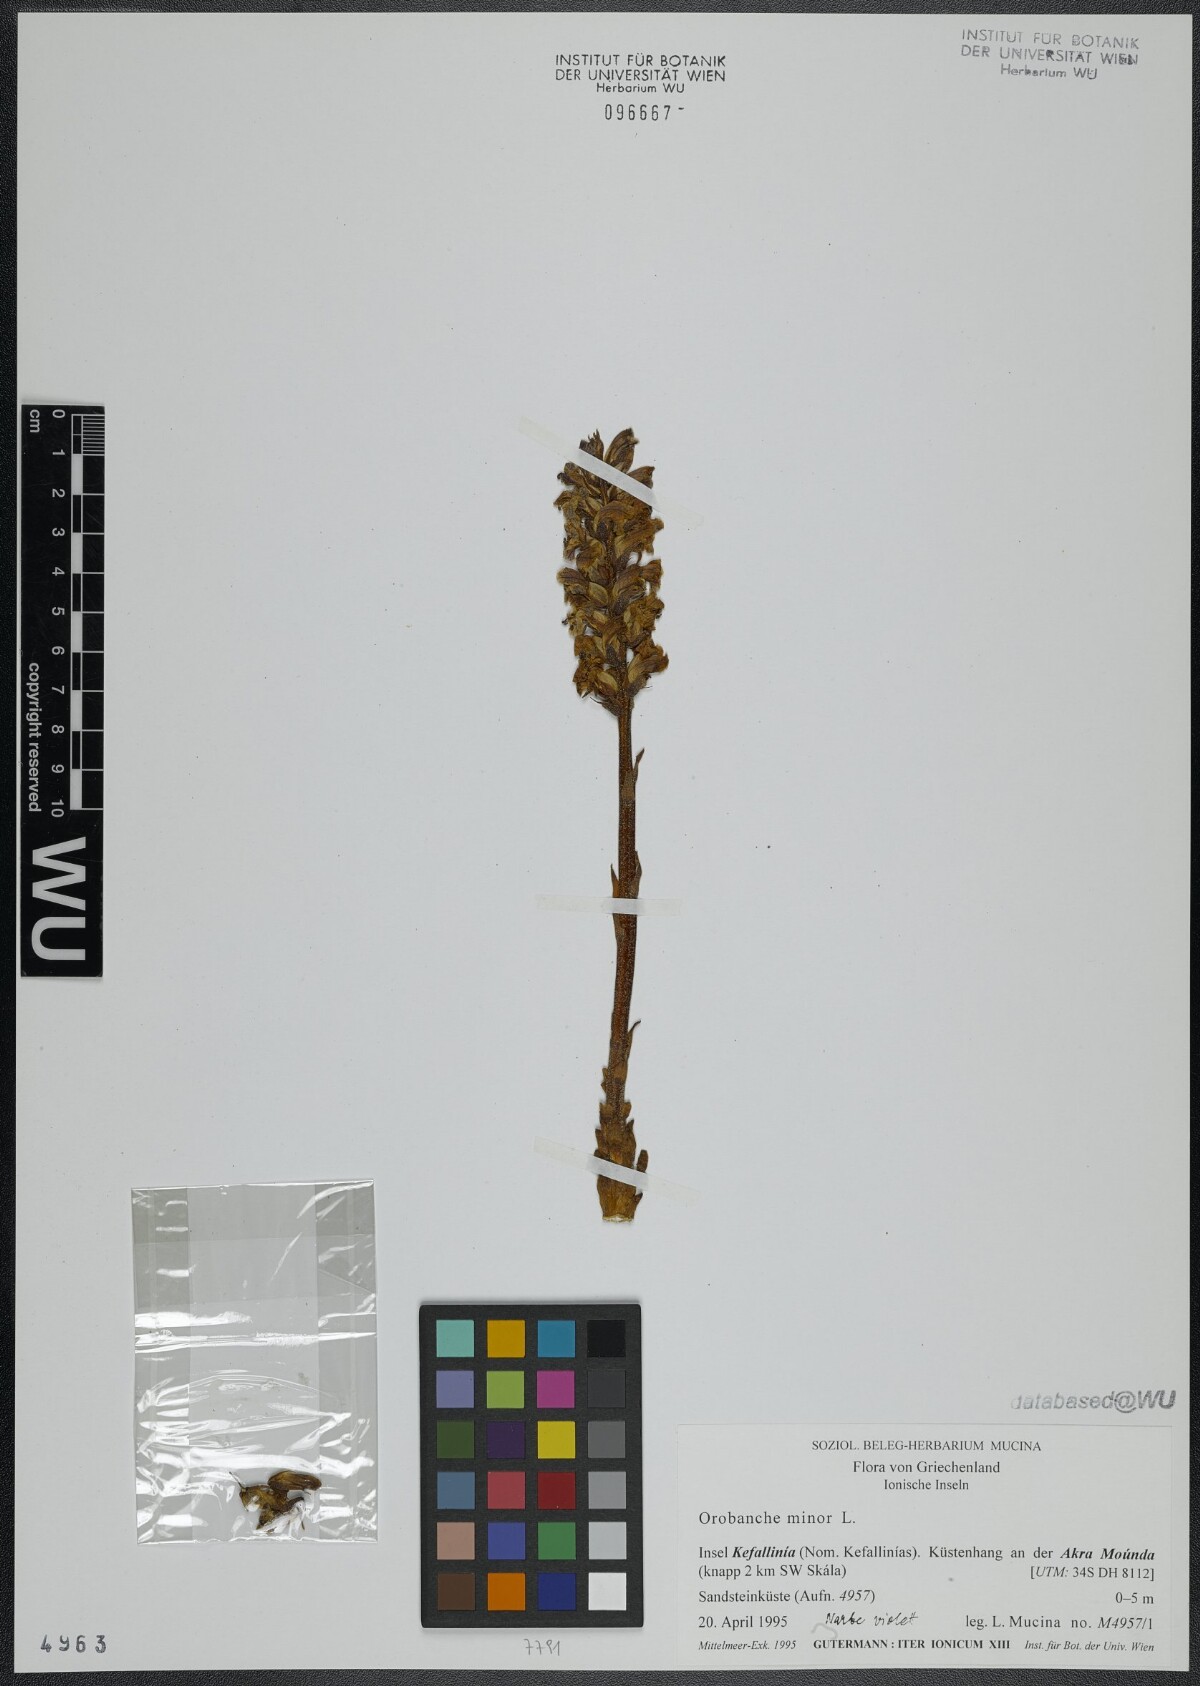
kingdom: Plantae
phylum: Tracheophyta
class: Magnoliopsida
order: Lamiales
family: Orobanchaceae
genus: Orobanche
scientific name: Orobanche grisebachii
